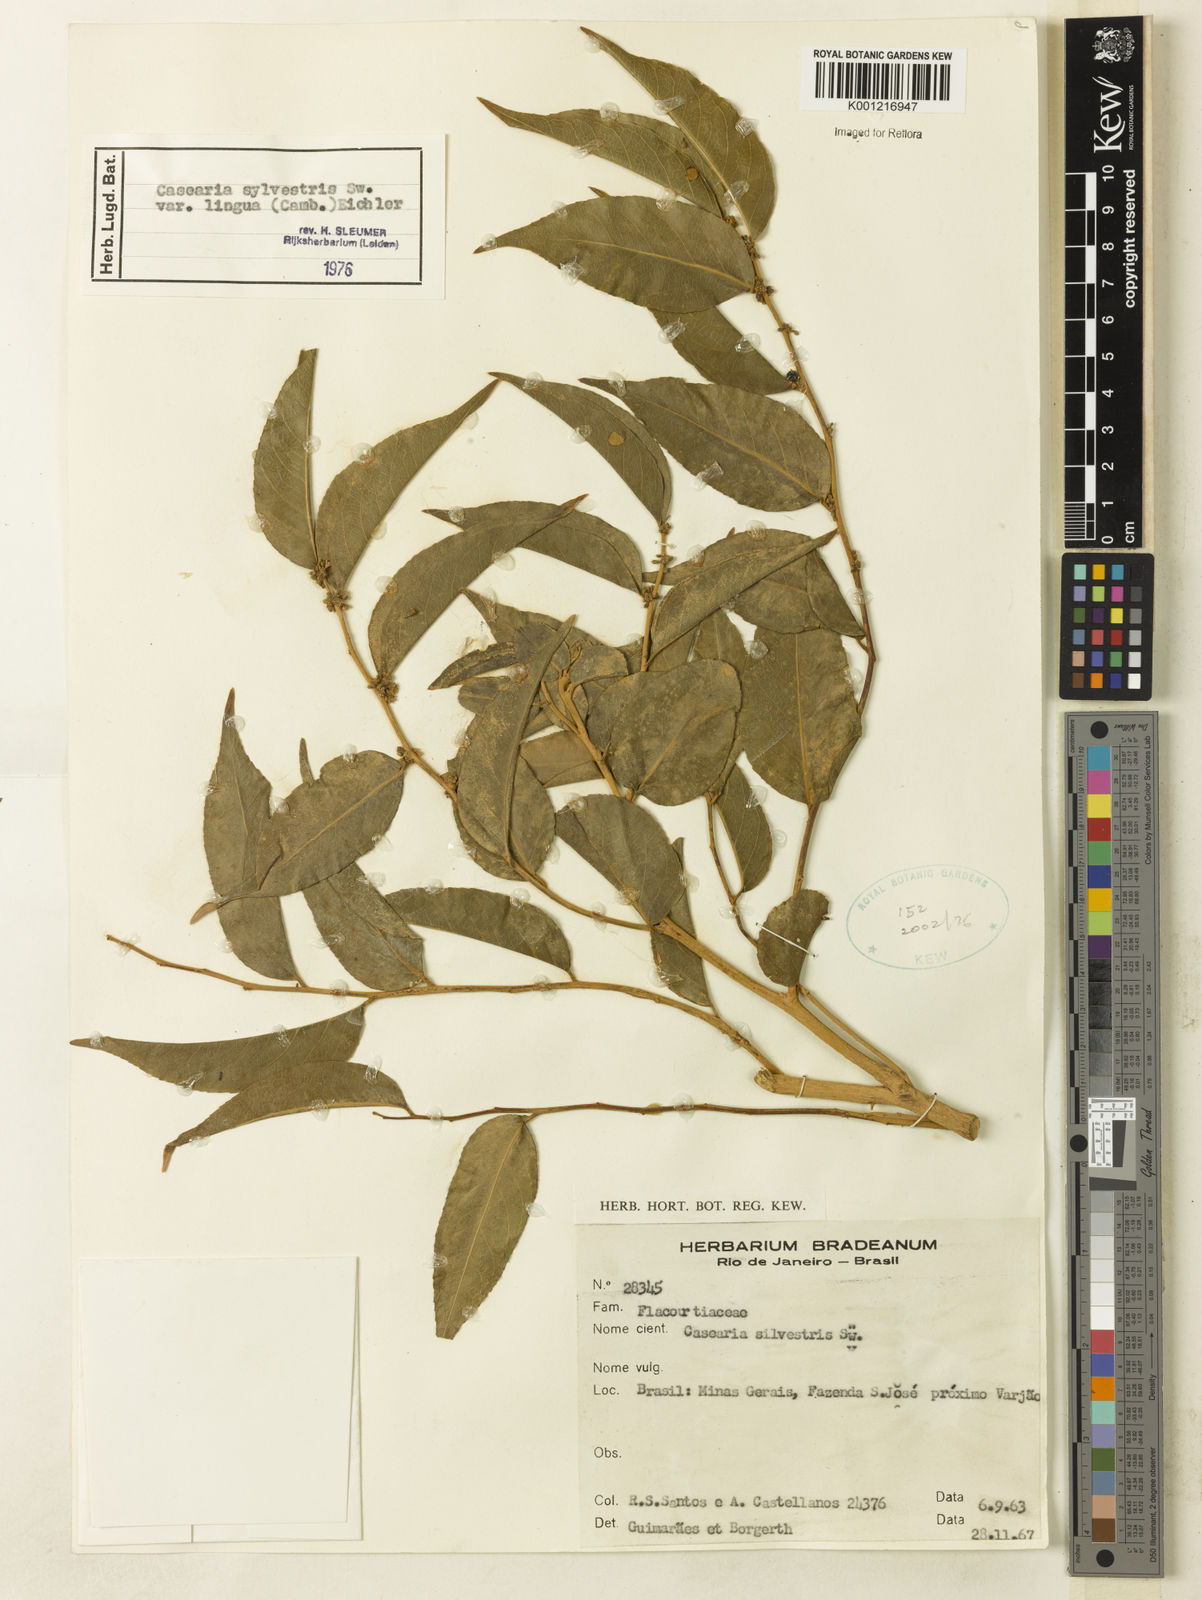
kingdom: Plantae
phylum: Tracheophyta
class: Magnoliopsida
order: Malpighiales
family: Salicaceae
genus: Casearia
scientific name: Casearia sylvestris
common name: Wild sage
